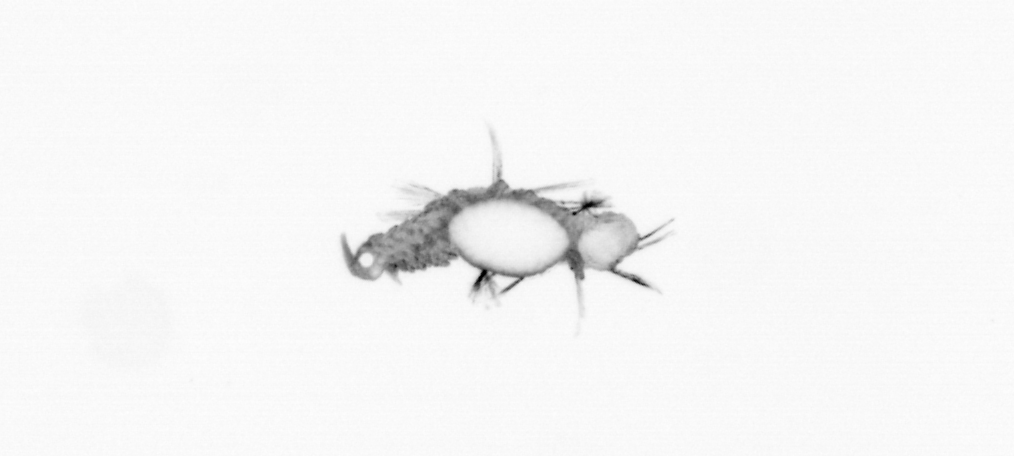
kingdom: Animalia
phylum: Annelida
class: Polychaeta
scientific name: Polychaeta
